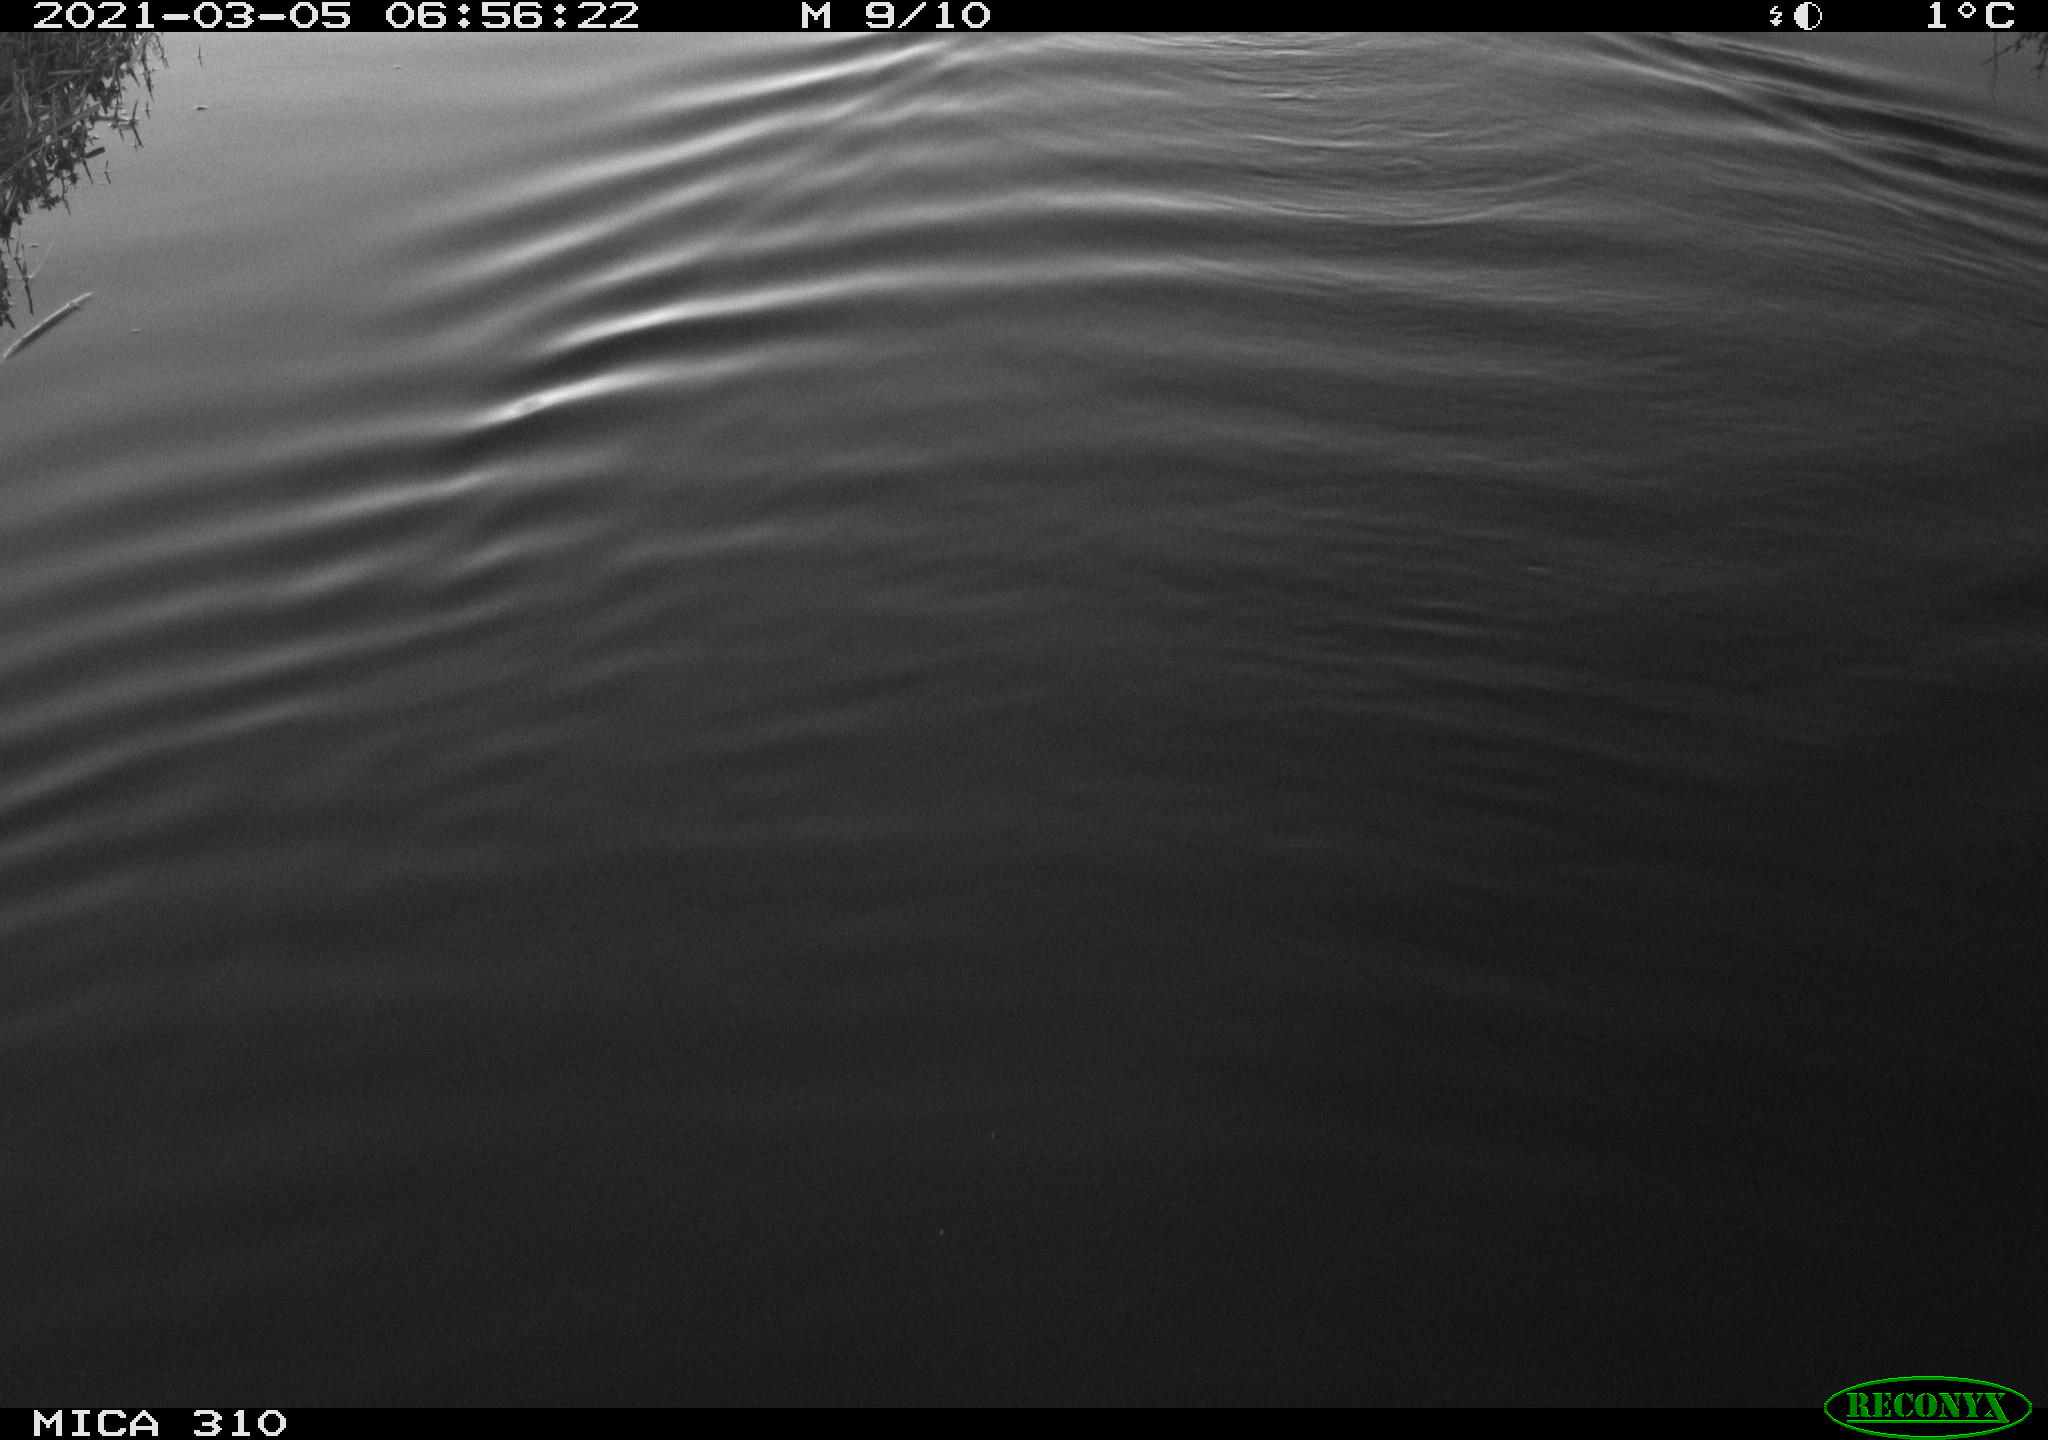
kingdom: Animalia
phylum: Chordata
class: Aves
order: Anseriformes
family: Anatidae
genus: Anas
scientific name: Anas platyrhynchos
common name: Mallard
